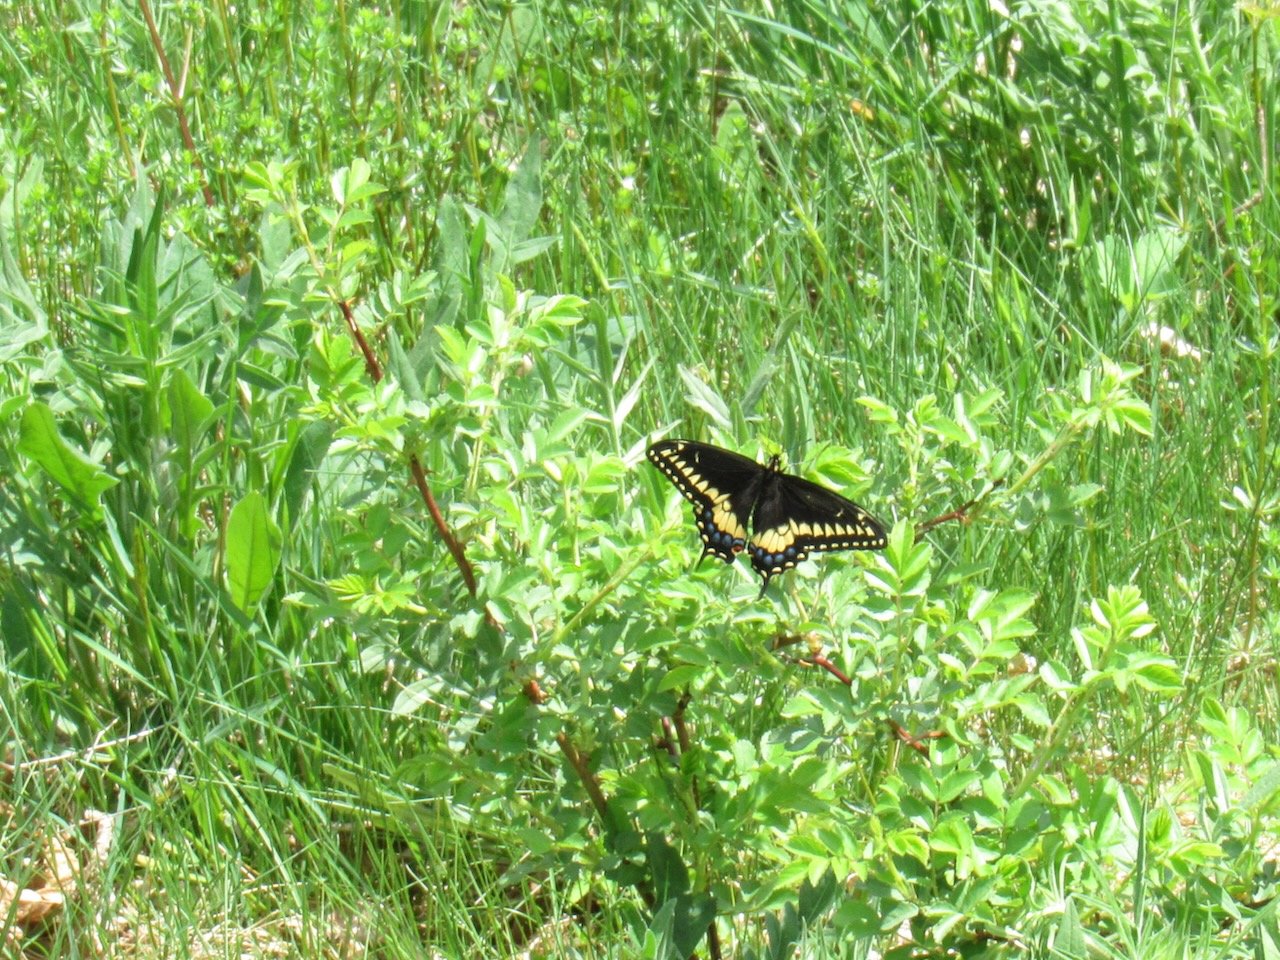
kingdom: Animalia
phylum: Arthropoda
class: Insecta
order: Lepidoptera
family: Papilionidae
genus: Papilio
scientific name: Papilio polyxenes
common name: Black Swallowtail
